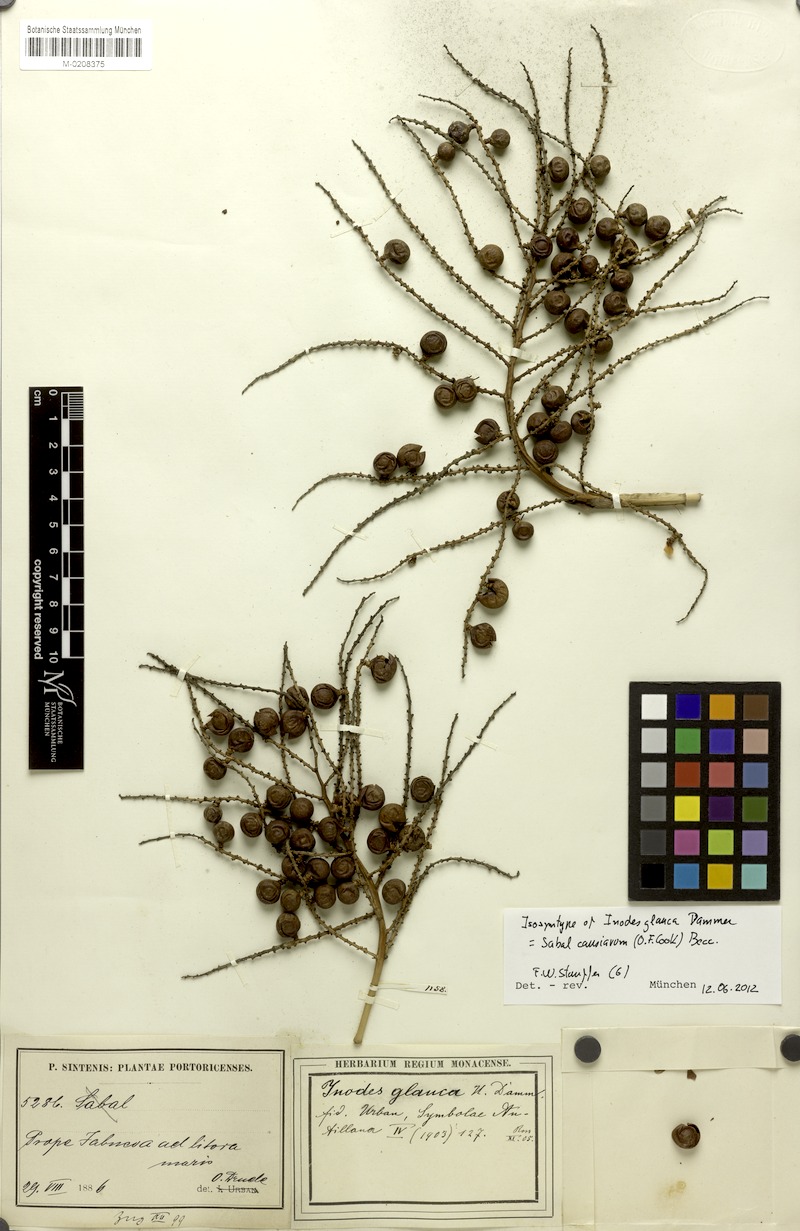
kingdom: Plantae
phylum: Tracheophyta
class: Liliopsida
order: Arecales
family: Arecaceae
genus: Sabal
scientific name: Sabal causiarum
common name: Puerto rican hat palm
